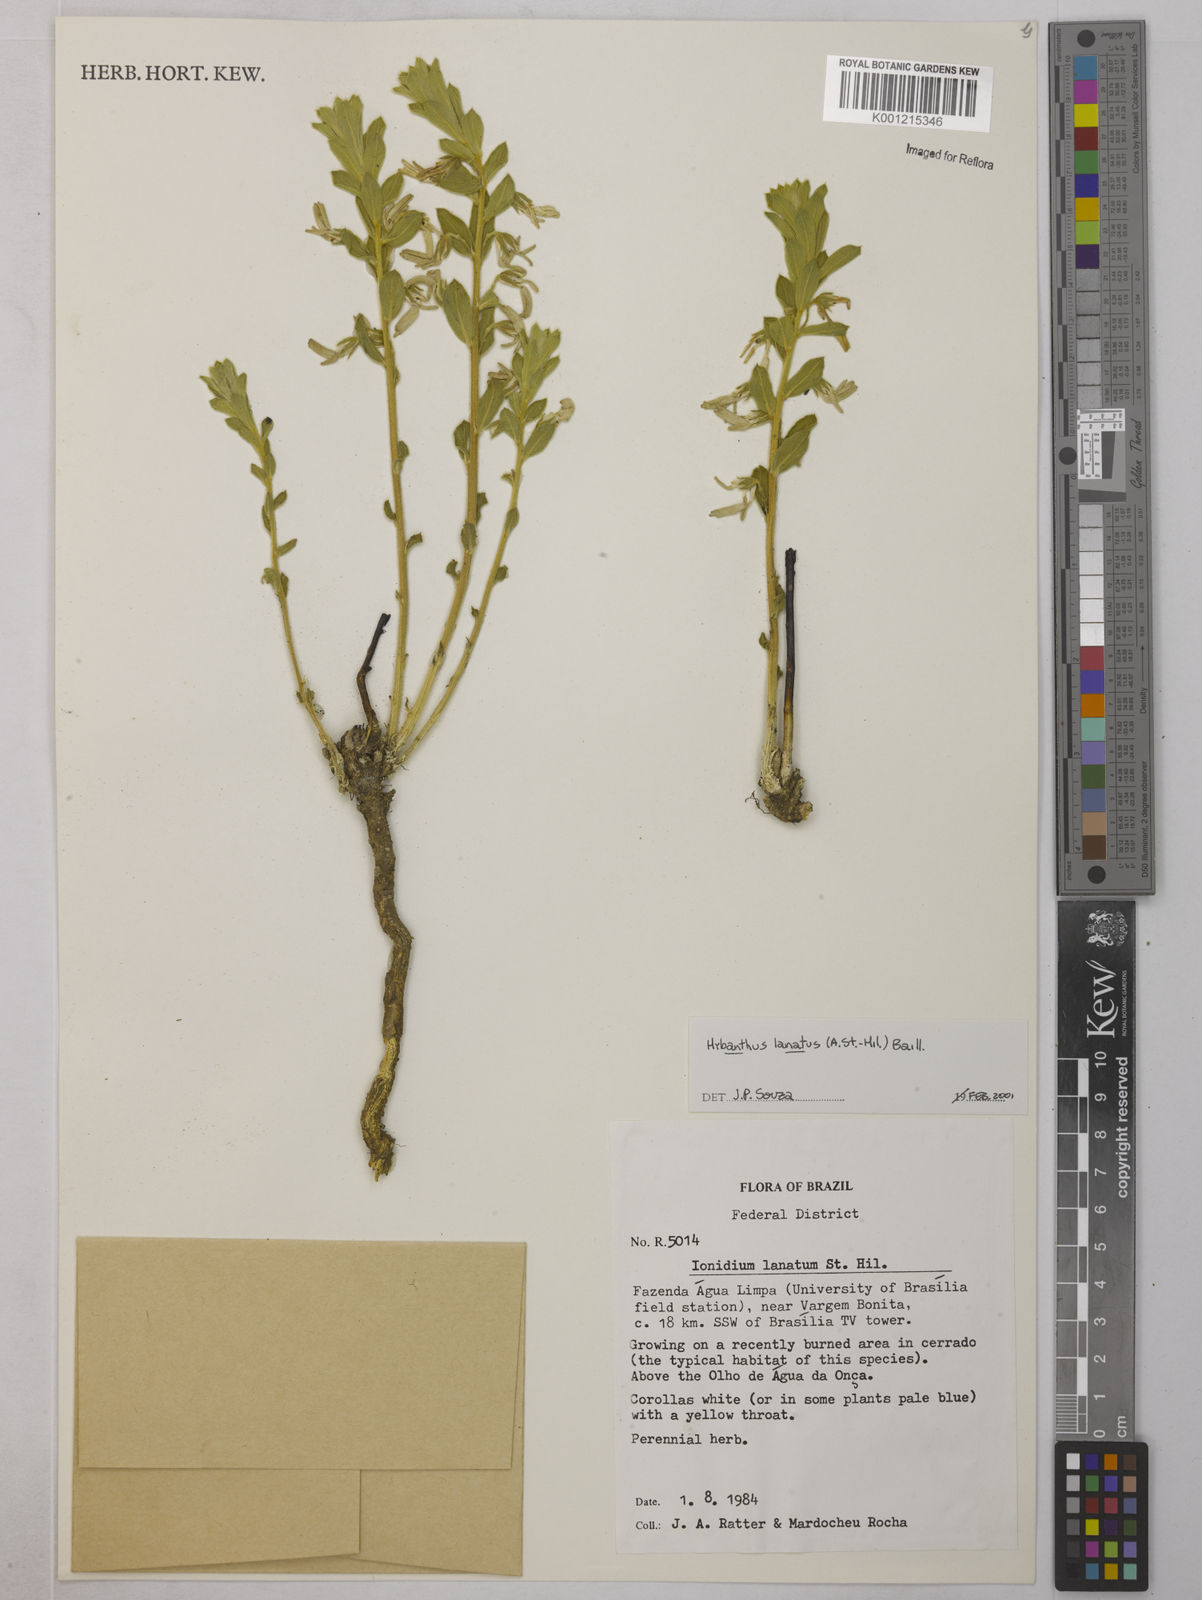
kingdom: Plantae
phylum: Tracheophyta
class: Magnoliopsida
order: Malpighiales
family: Violaceae
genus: Pombalia
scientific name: Pombalia lanata
